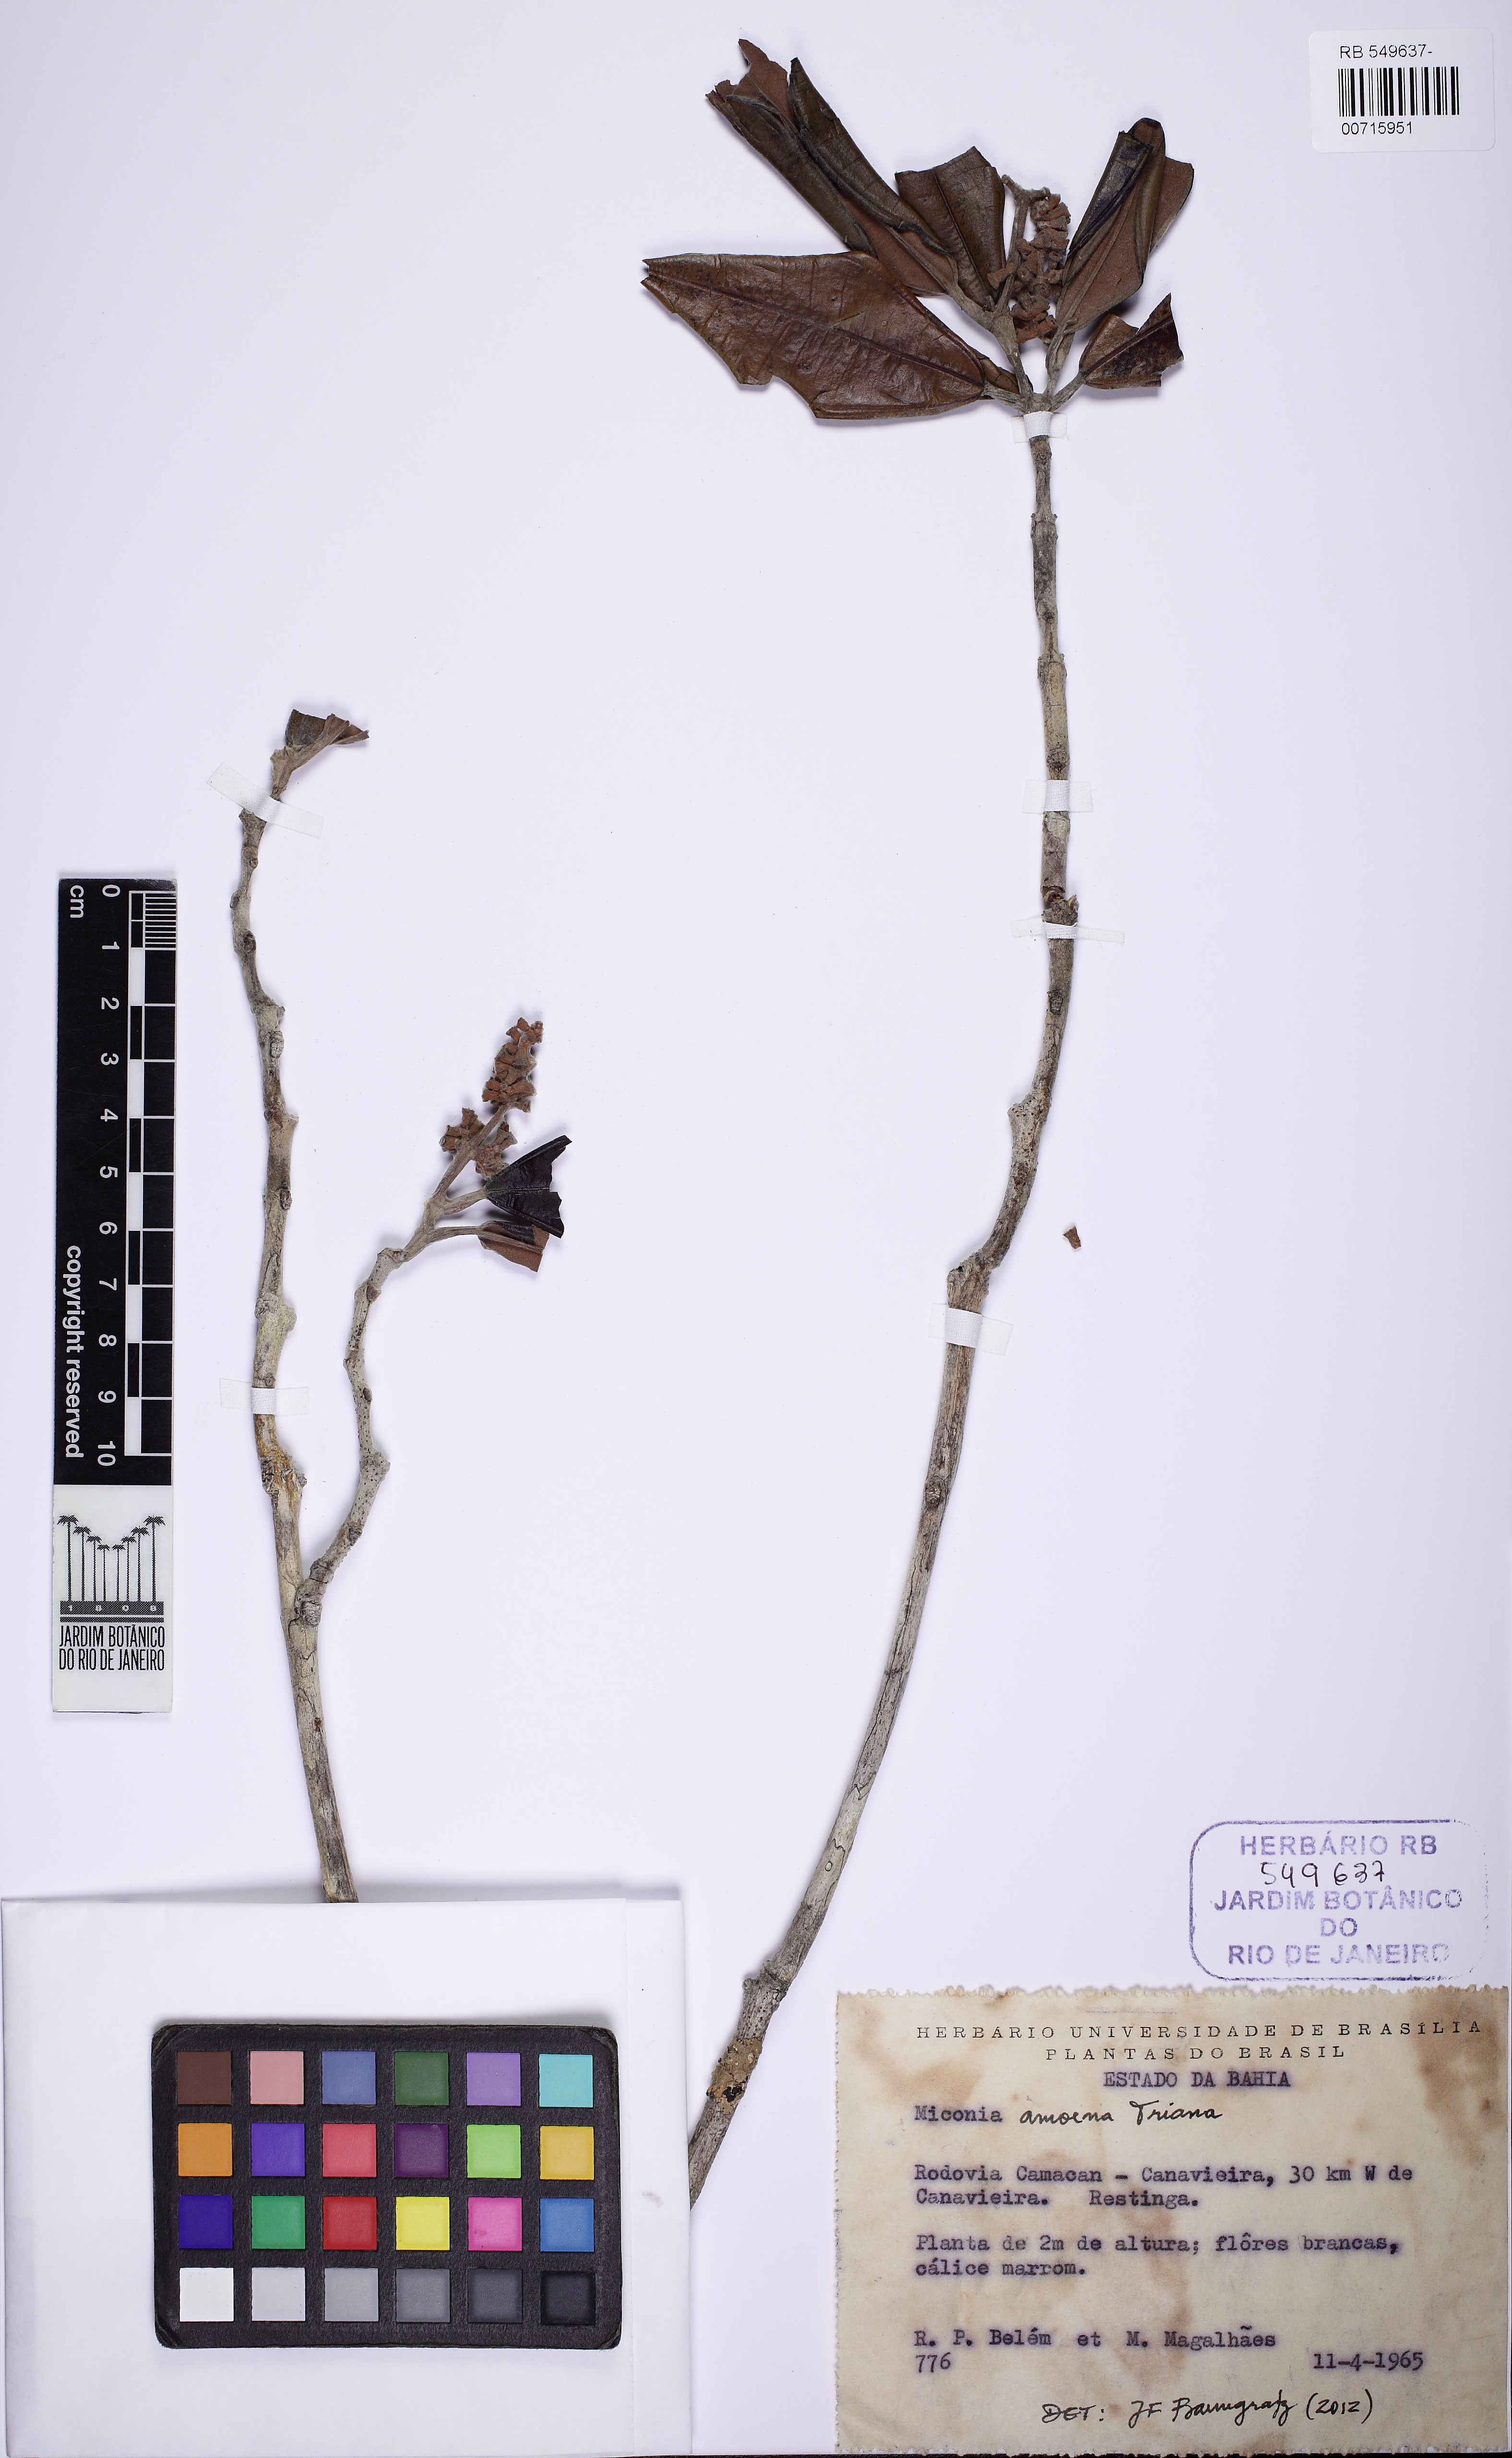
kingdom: Plantae
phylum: Tracheophyta
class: Magnoliopsida
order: Myrtales
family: Melastomataceae
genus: Miconia
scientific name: Miconia amoena
